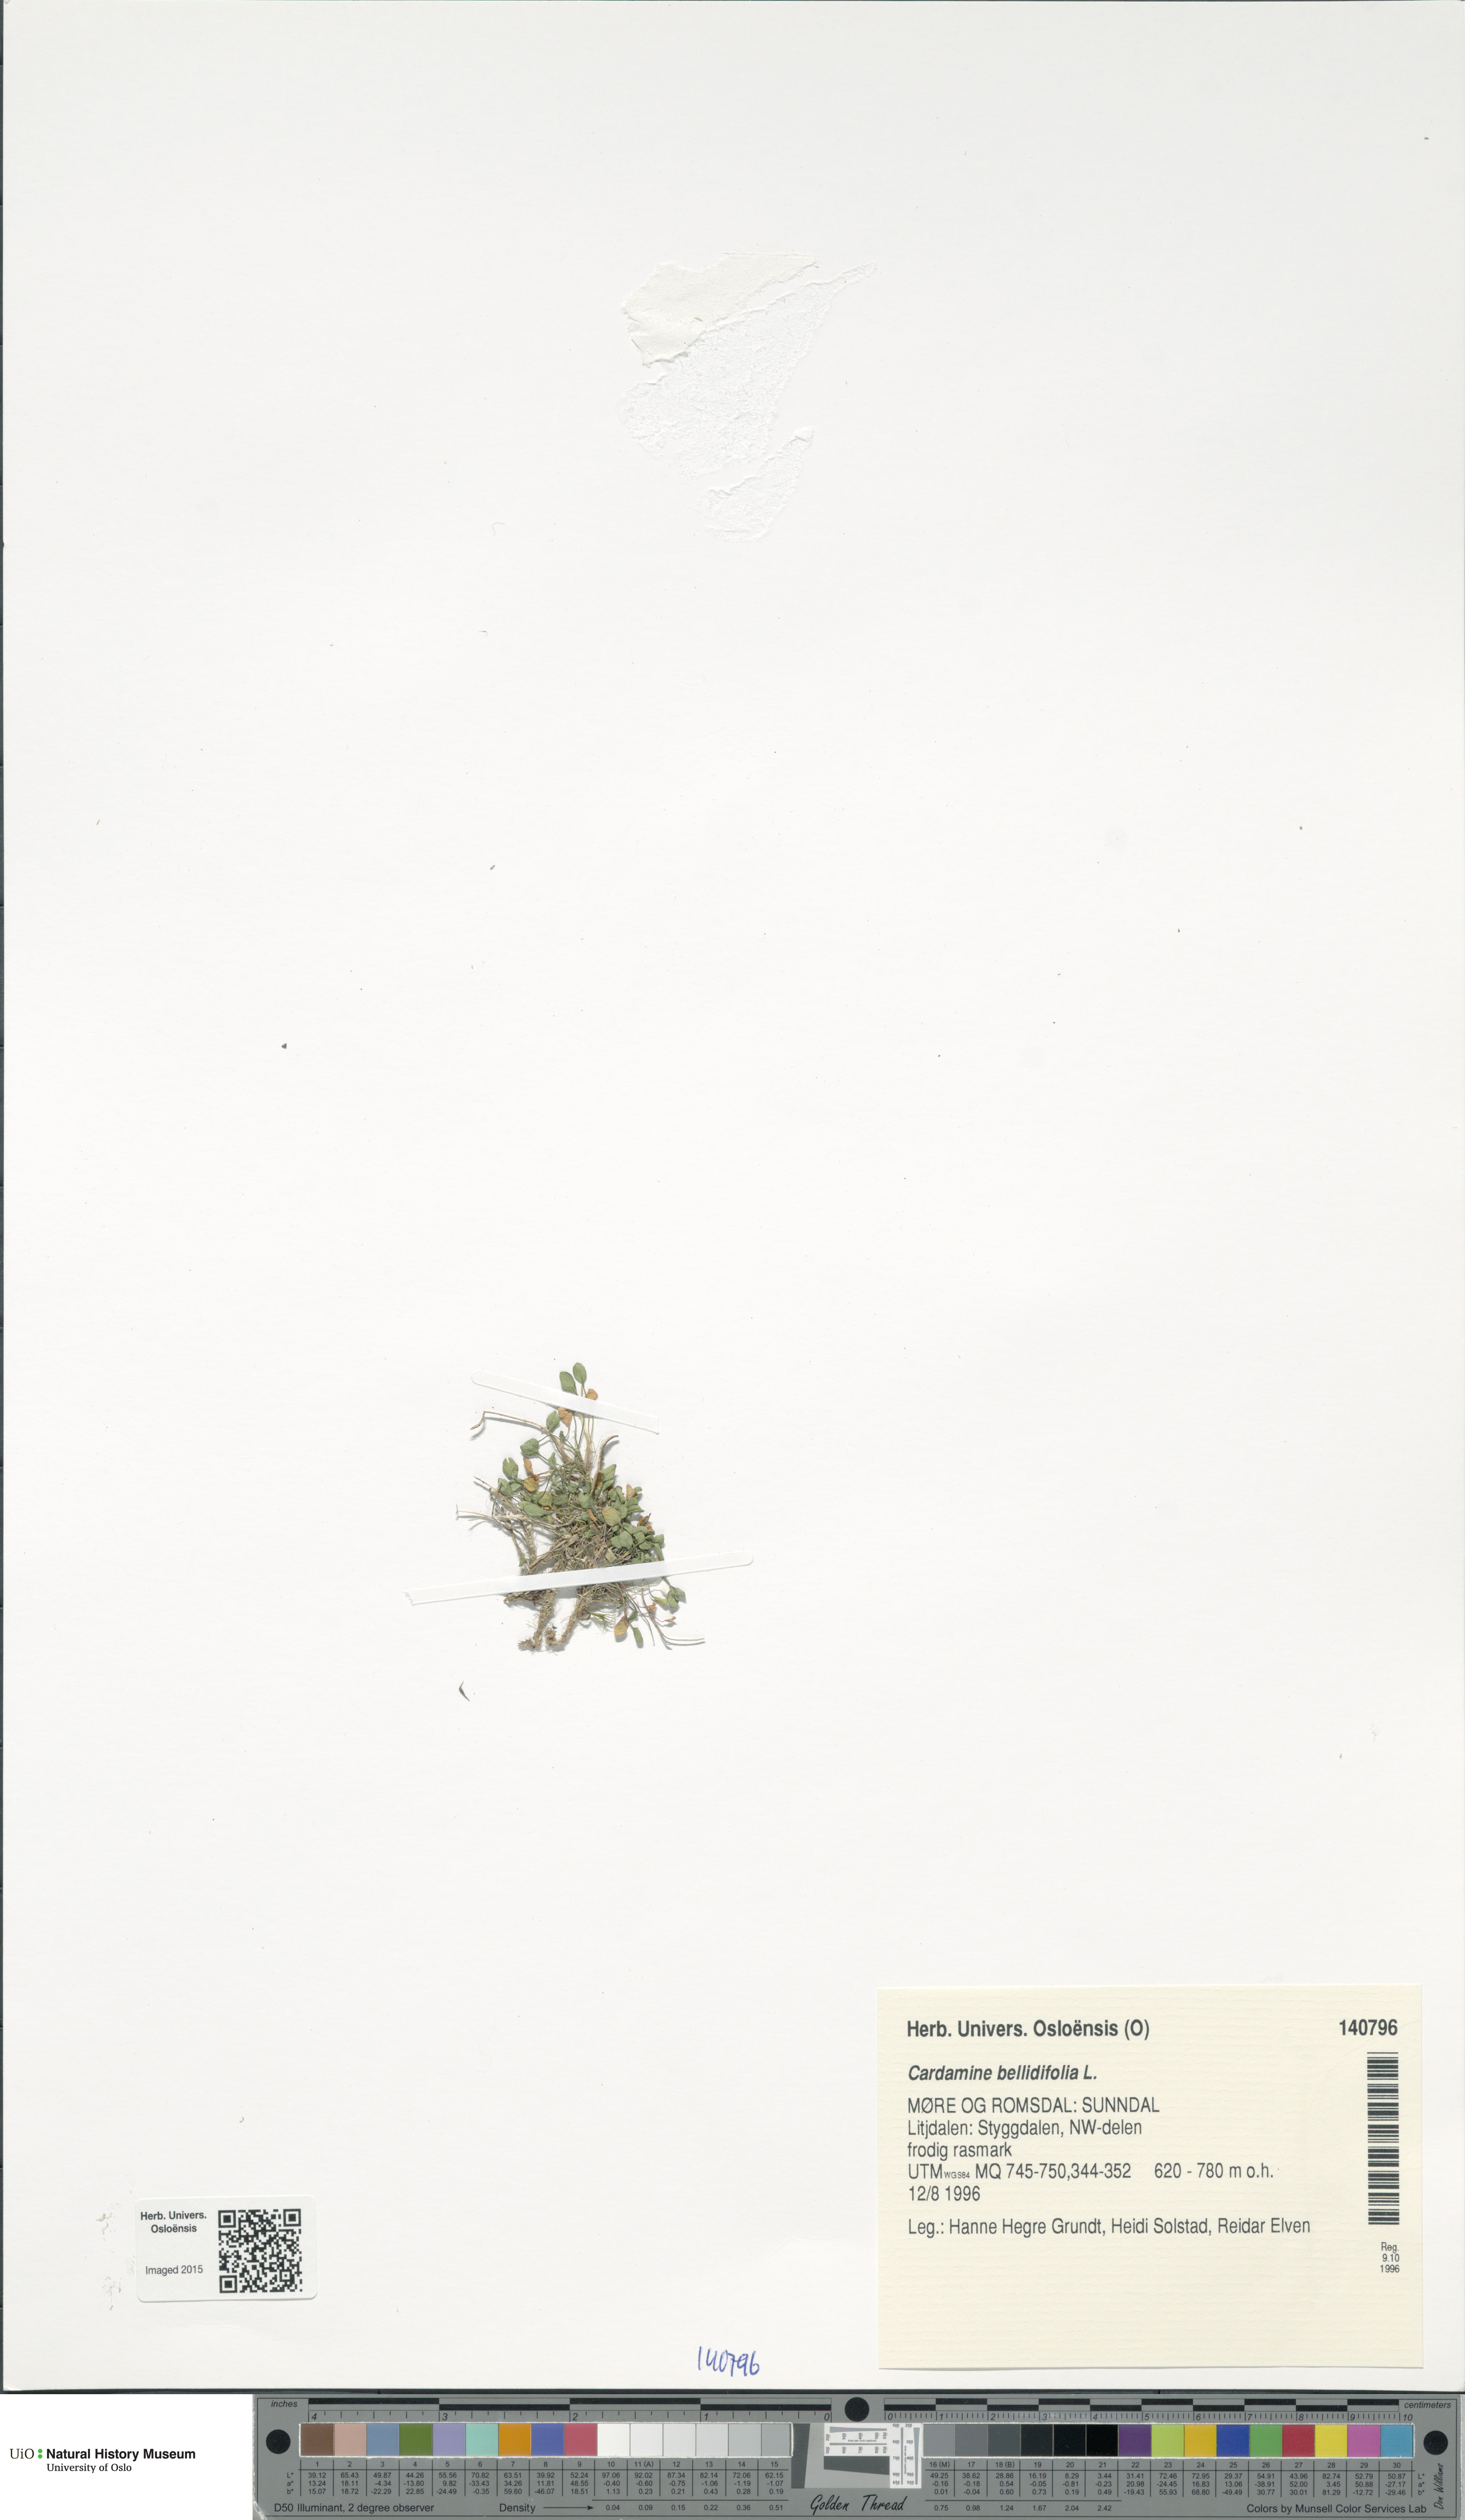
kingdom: Plantae
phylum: Tracheophyta
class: Magnoliopsida
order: Brassicales
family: Brassicaceae
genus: Cardamine
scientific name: Cardamine bellidifolia
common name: Alpine bittercress
